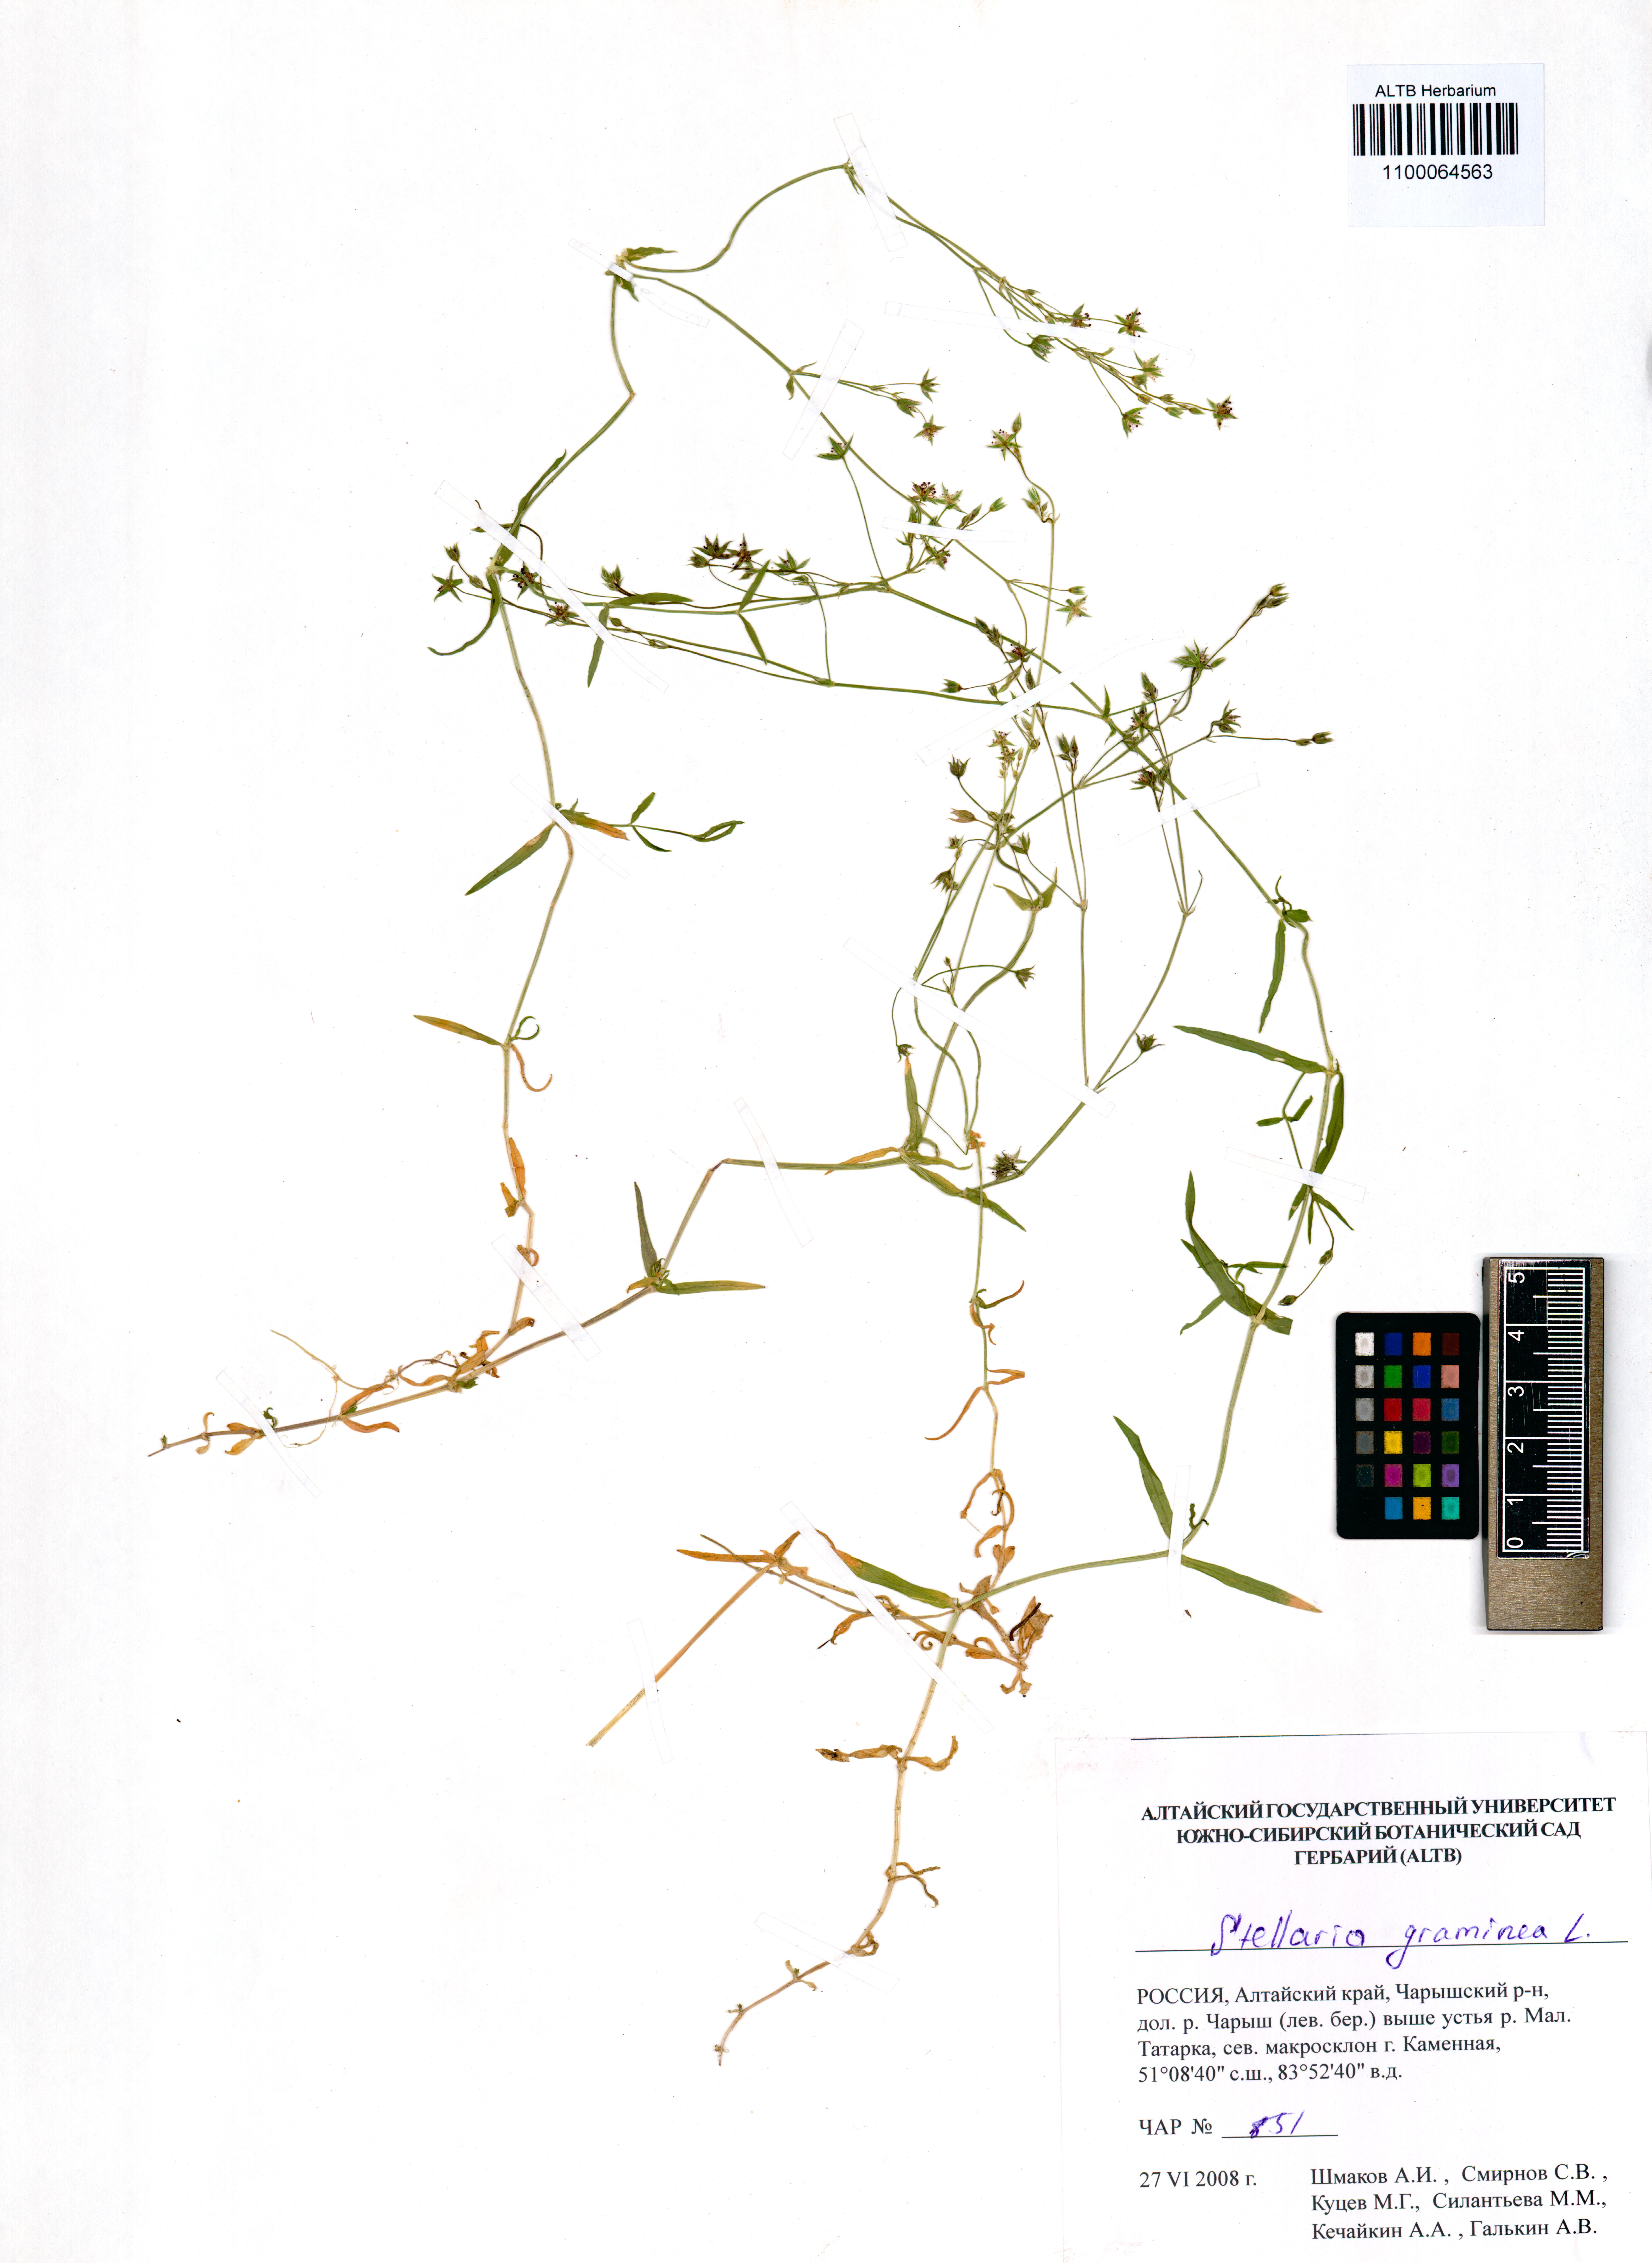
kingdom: Plantae
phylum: Tracheophyta
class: Magnoliopsida
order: Caryophyllales
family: Caryophyllaceae
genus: Stellaria
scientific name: Stellaria graminea
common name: Grass-like starwort
